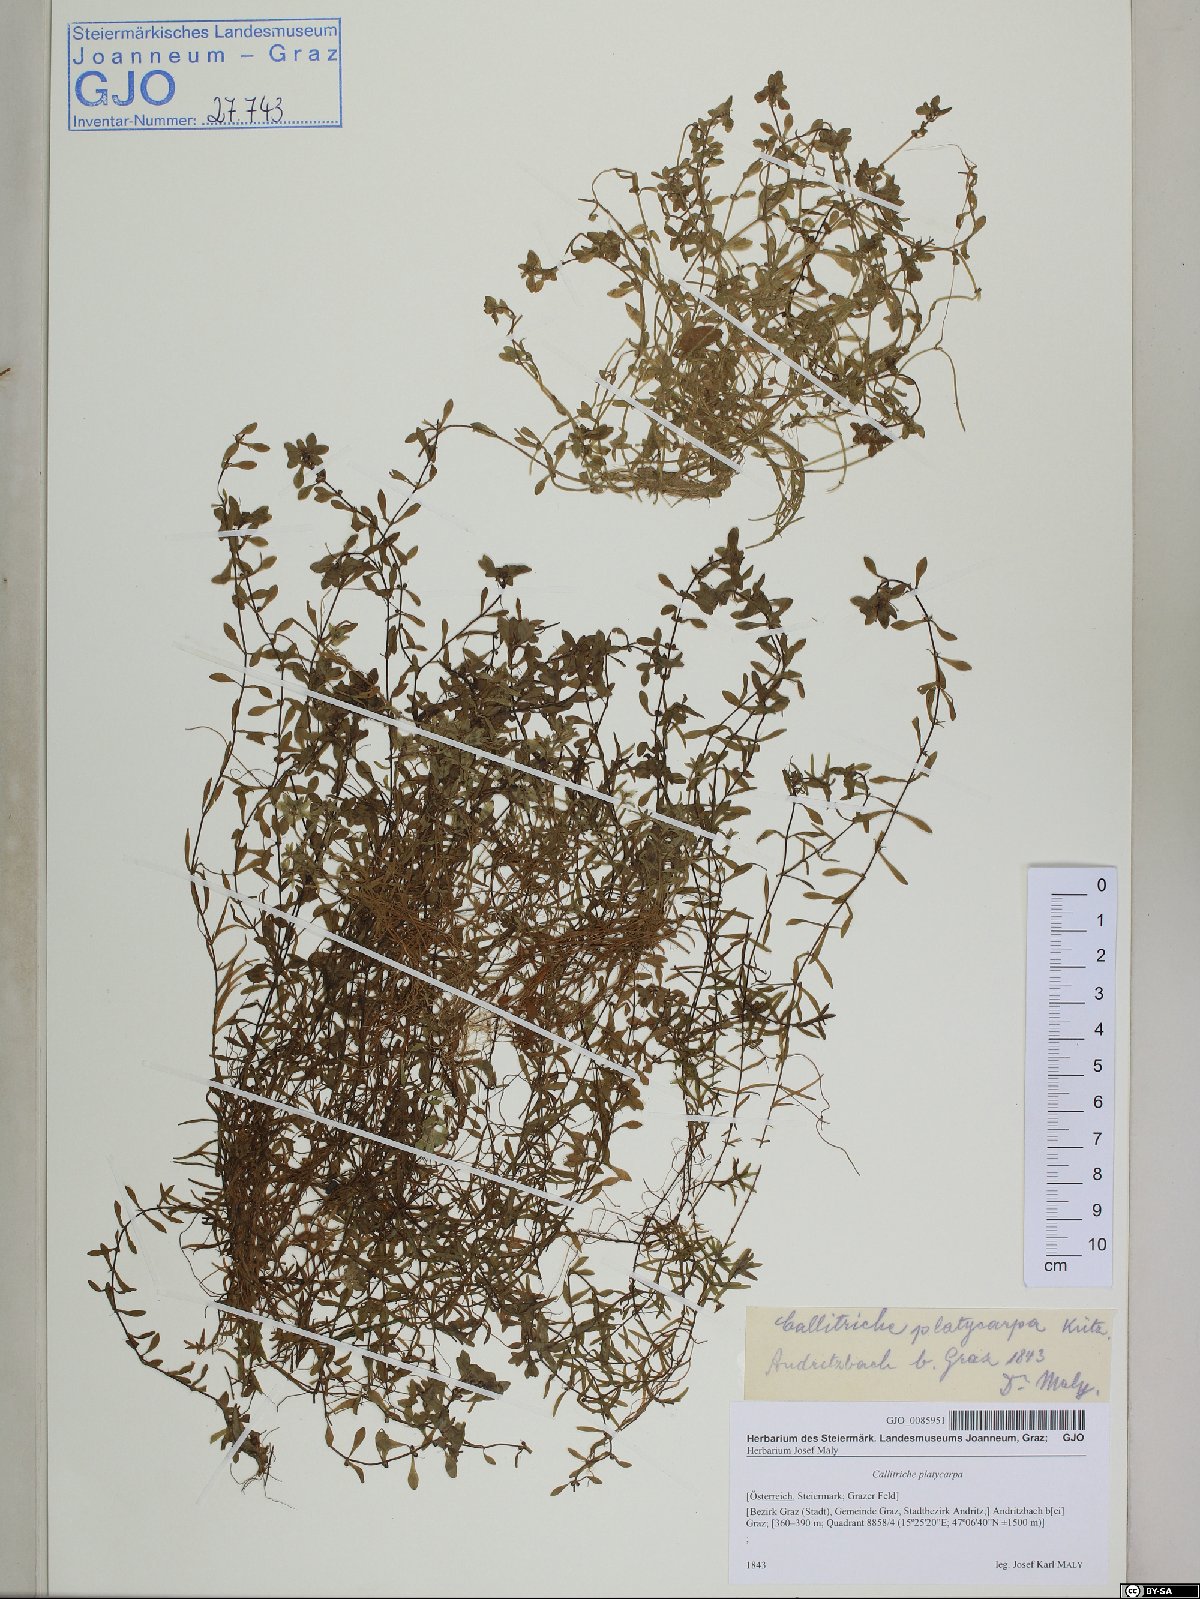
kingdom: Plantae
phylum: Tracheophyta
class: Magnoliopsida
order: Lamiales
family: Plantaginaceae
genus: Callitriche
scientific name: Callitriche platycarpa
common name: Various-leaved water-starwort
